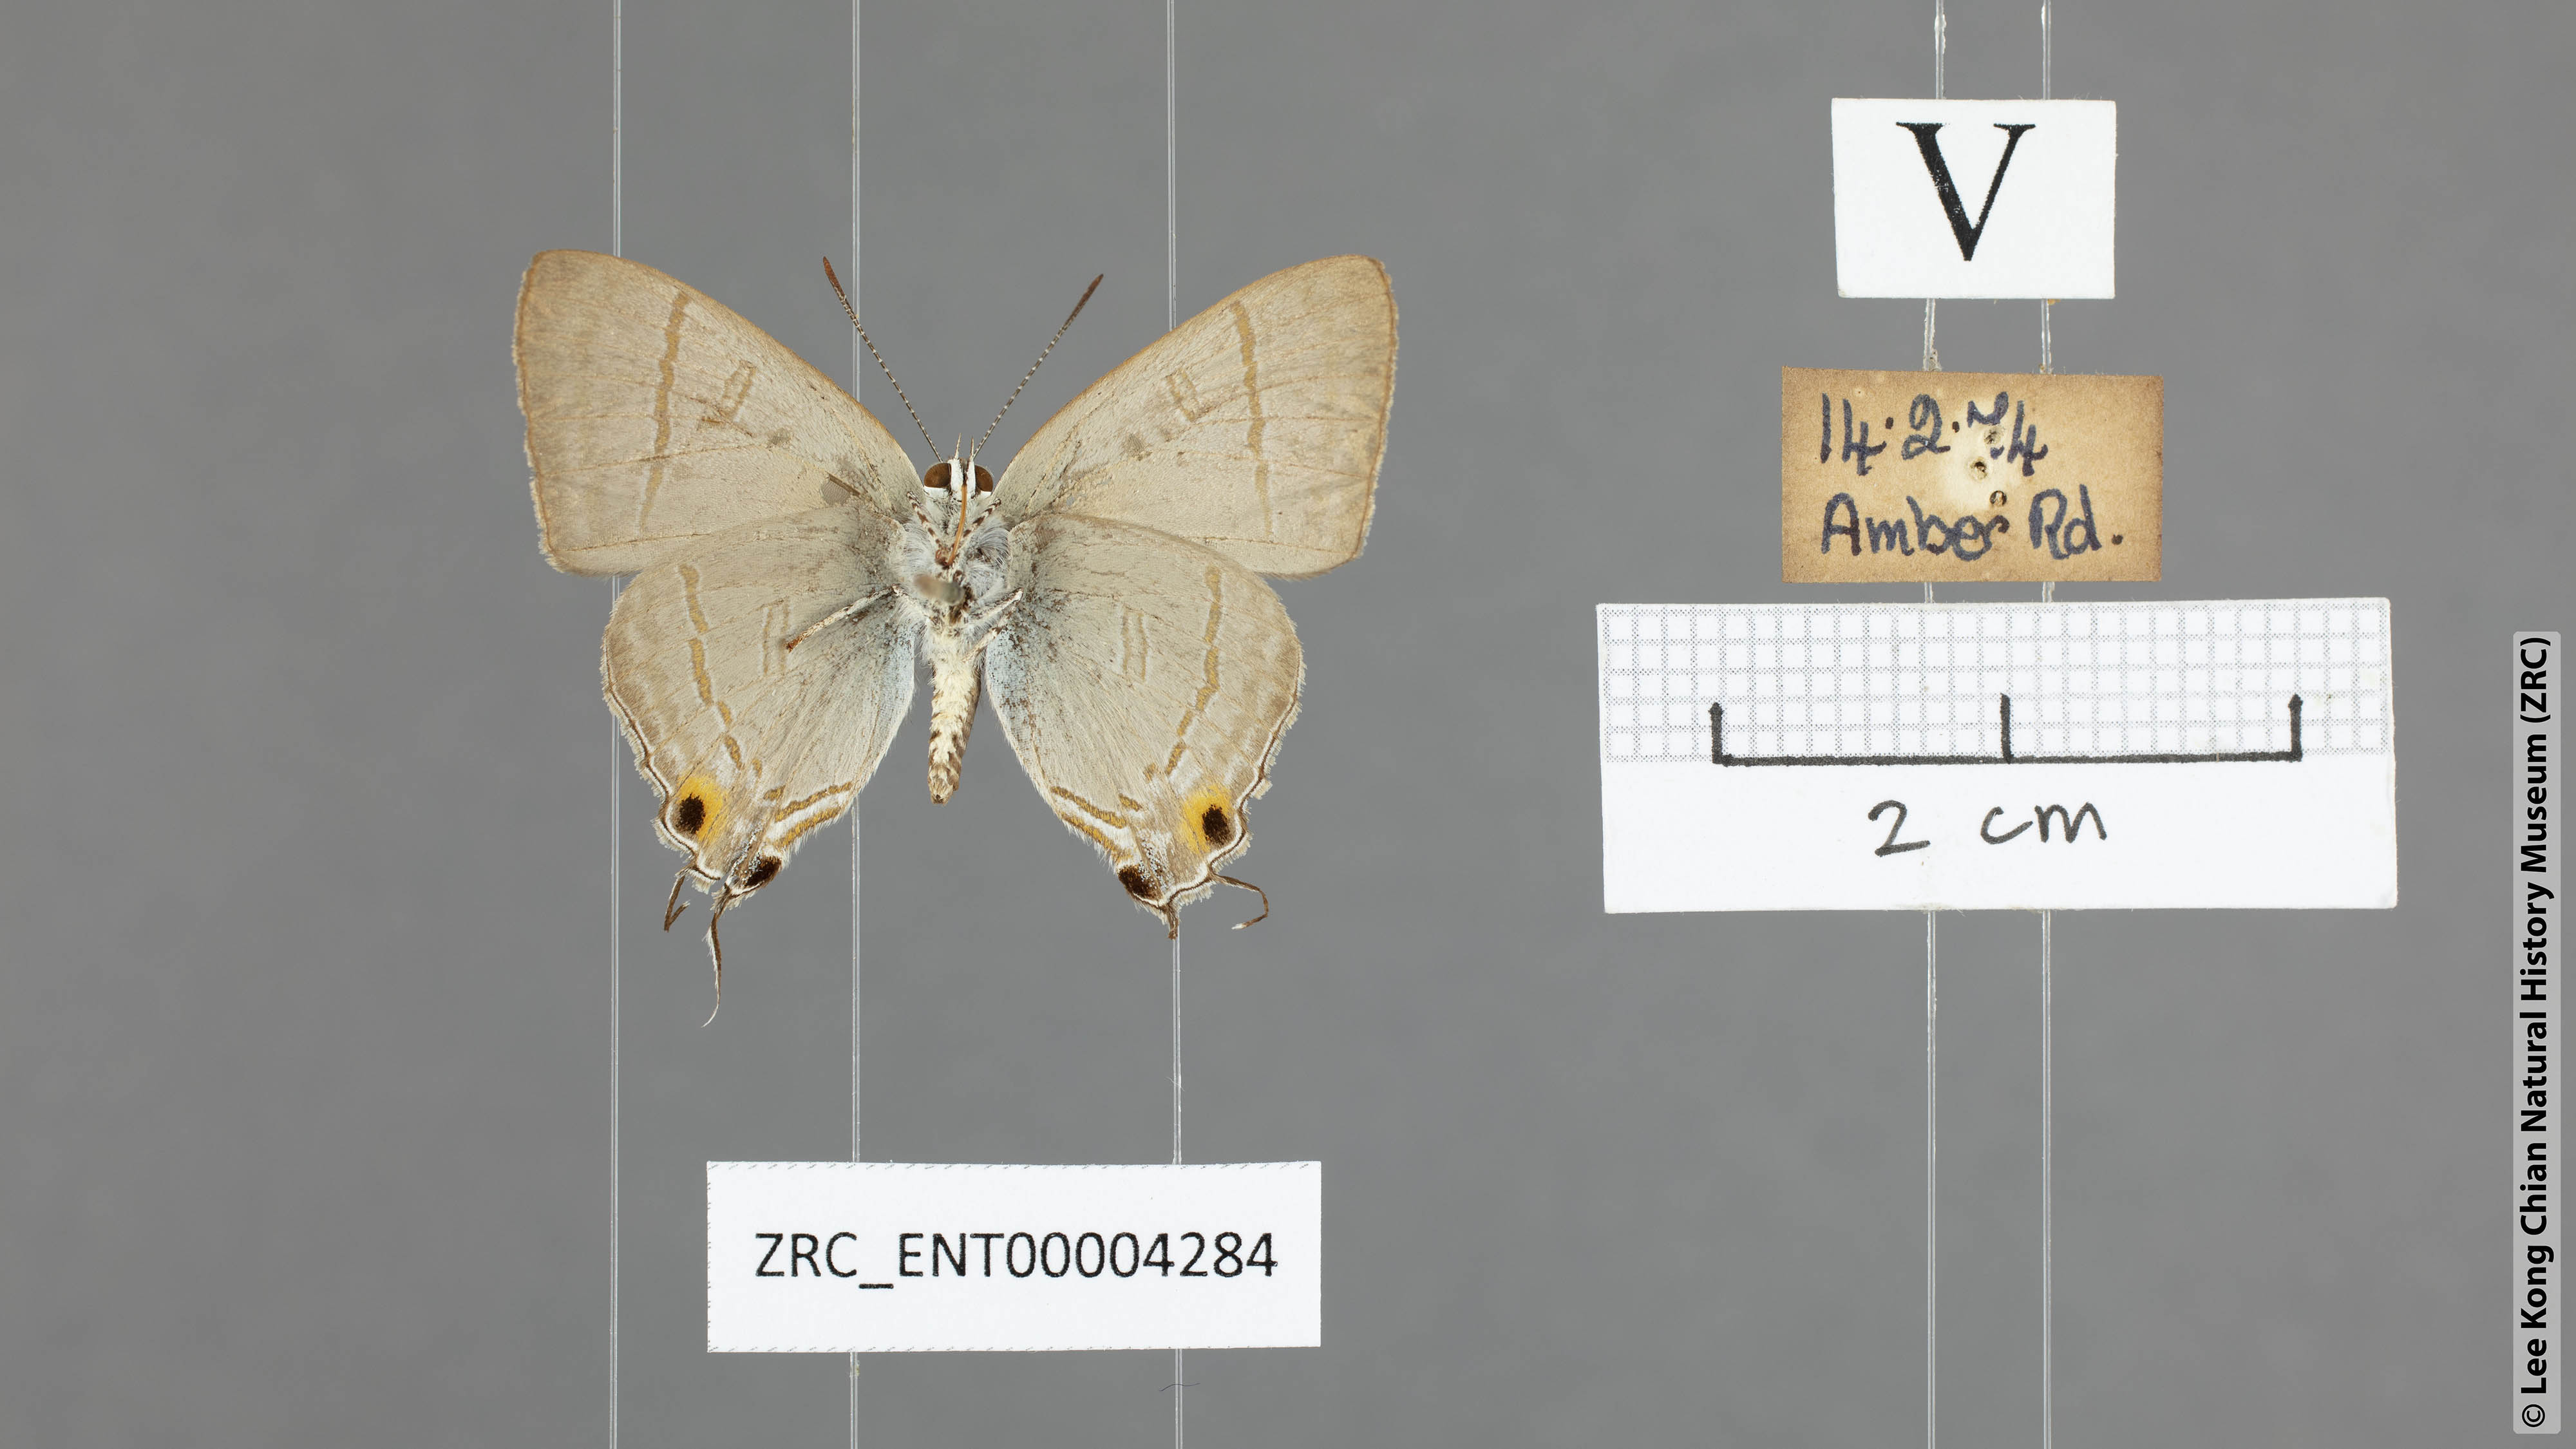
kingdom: Animalia
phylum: Arthropoda
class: Insecta
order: Lepidoptera
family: Lycaenidae
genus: Hypolycaena
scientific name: Hypolycaena erylus
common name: Common tit
